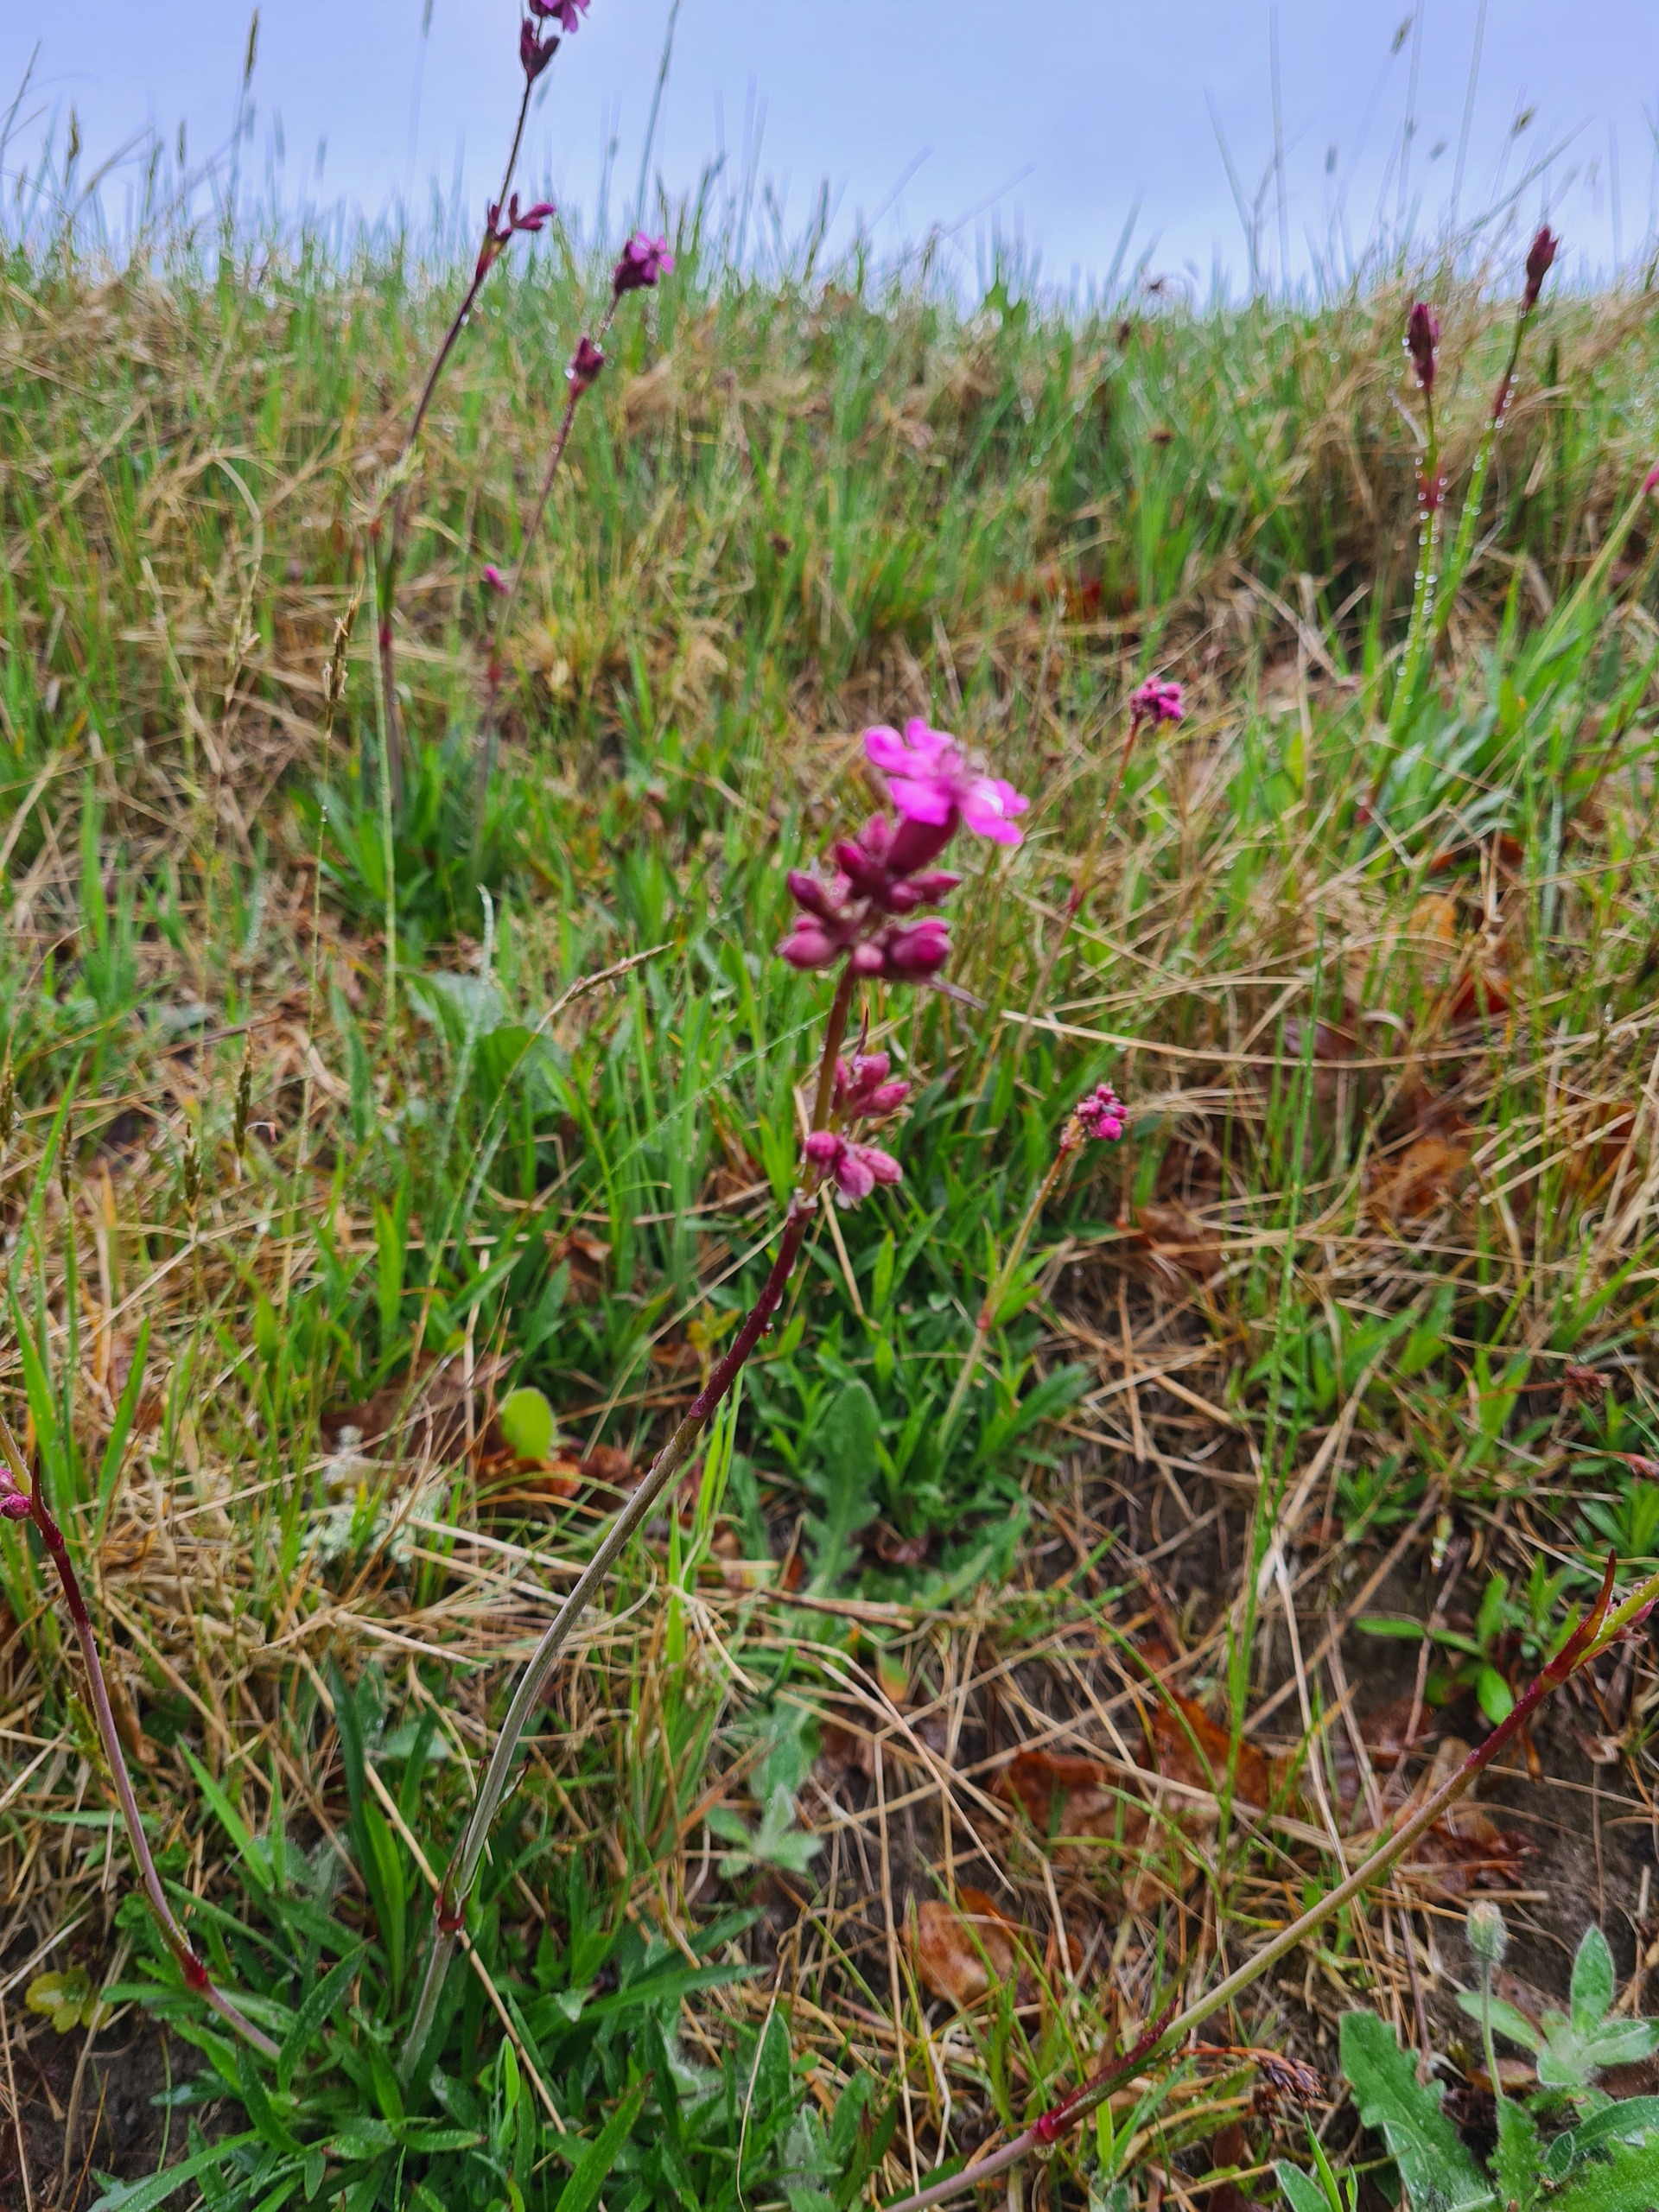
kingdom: Plantae
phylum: Tracheophyta
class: Magnoliopsida
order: Caryophyllales
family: Caryophyllaceae
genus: Viscaria
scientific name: Viscaria vulgaris
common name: Tjærenellike
